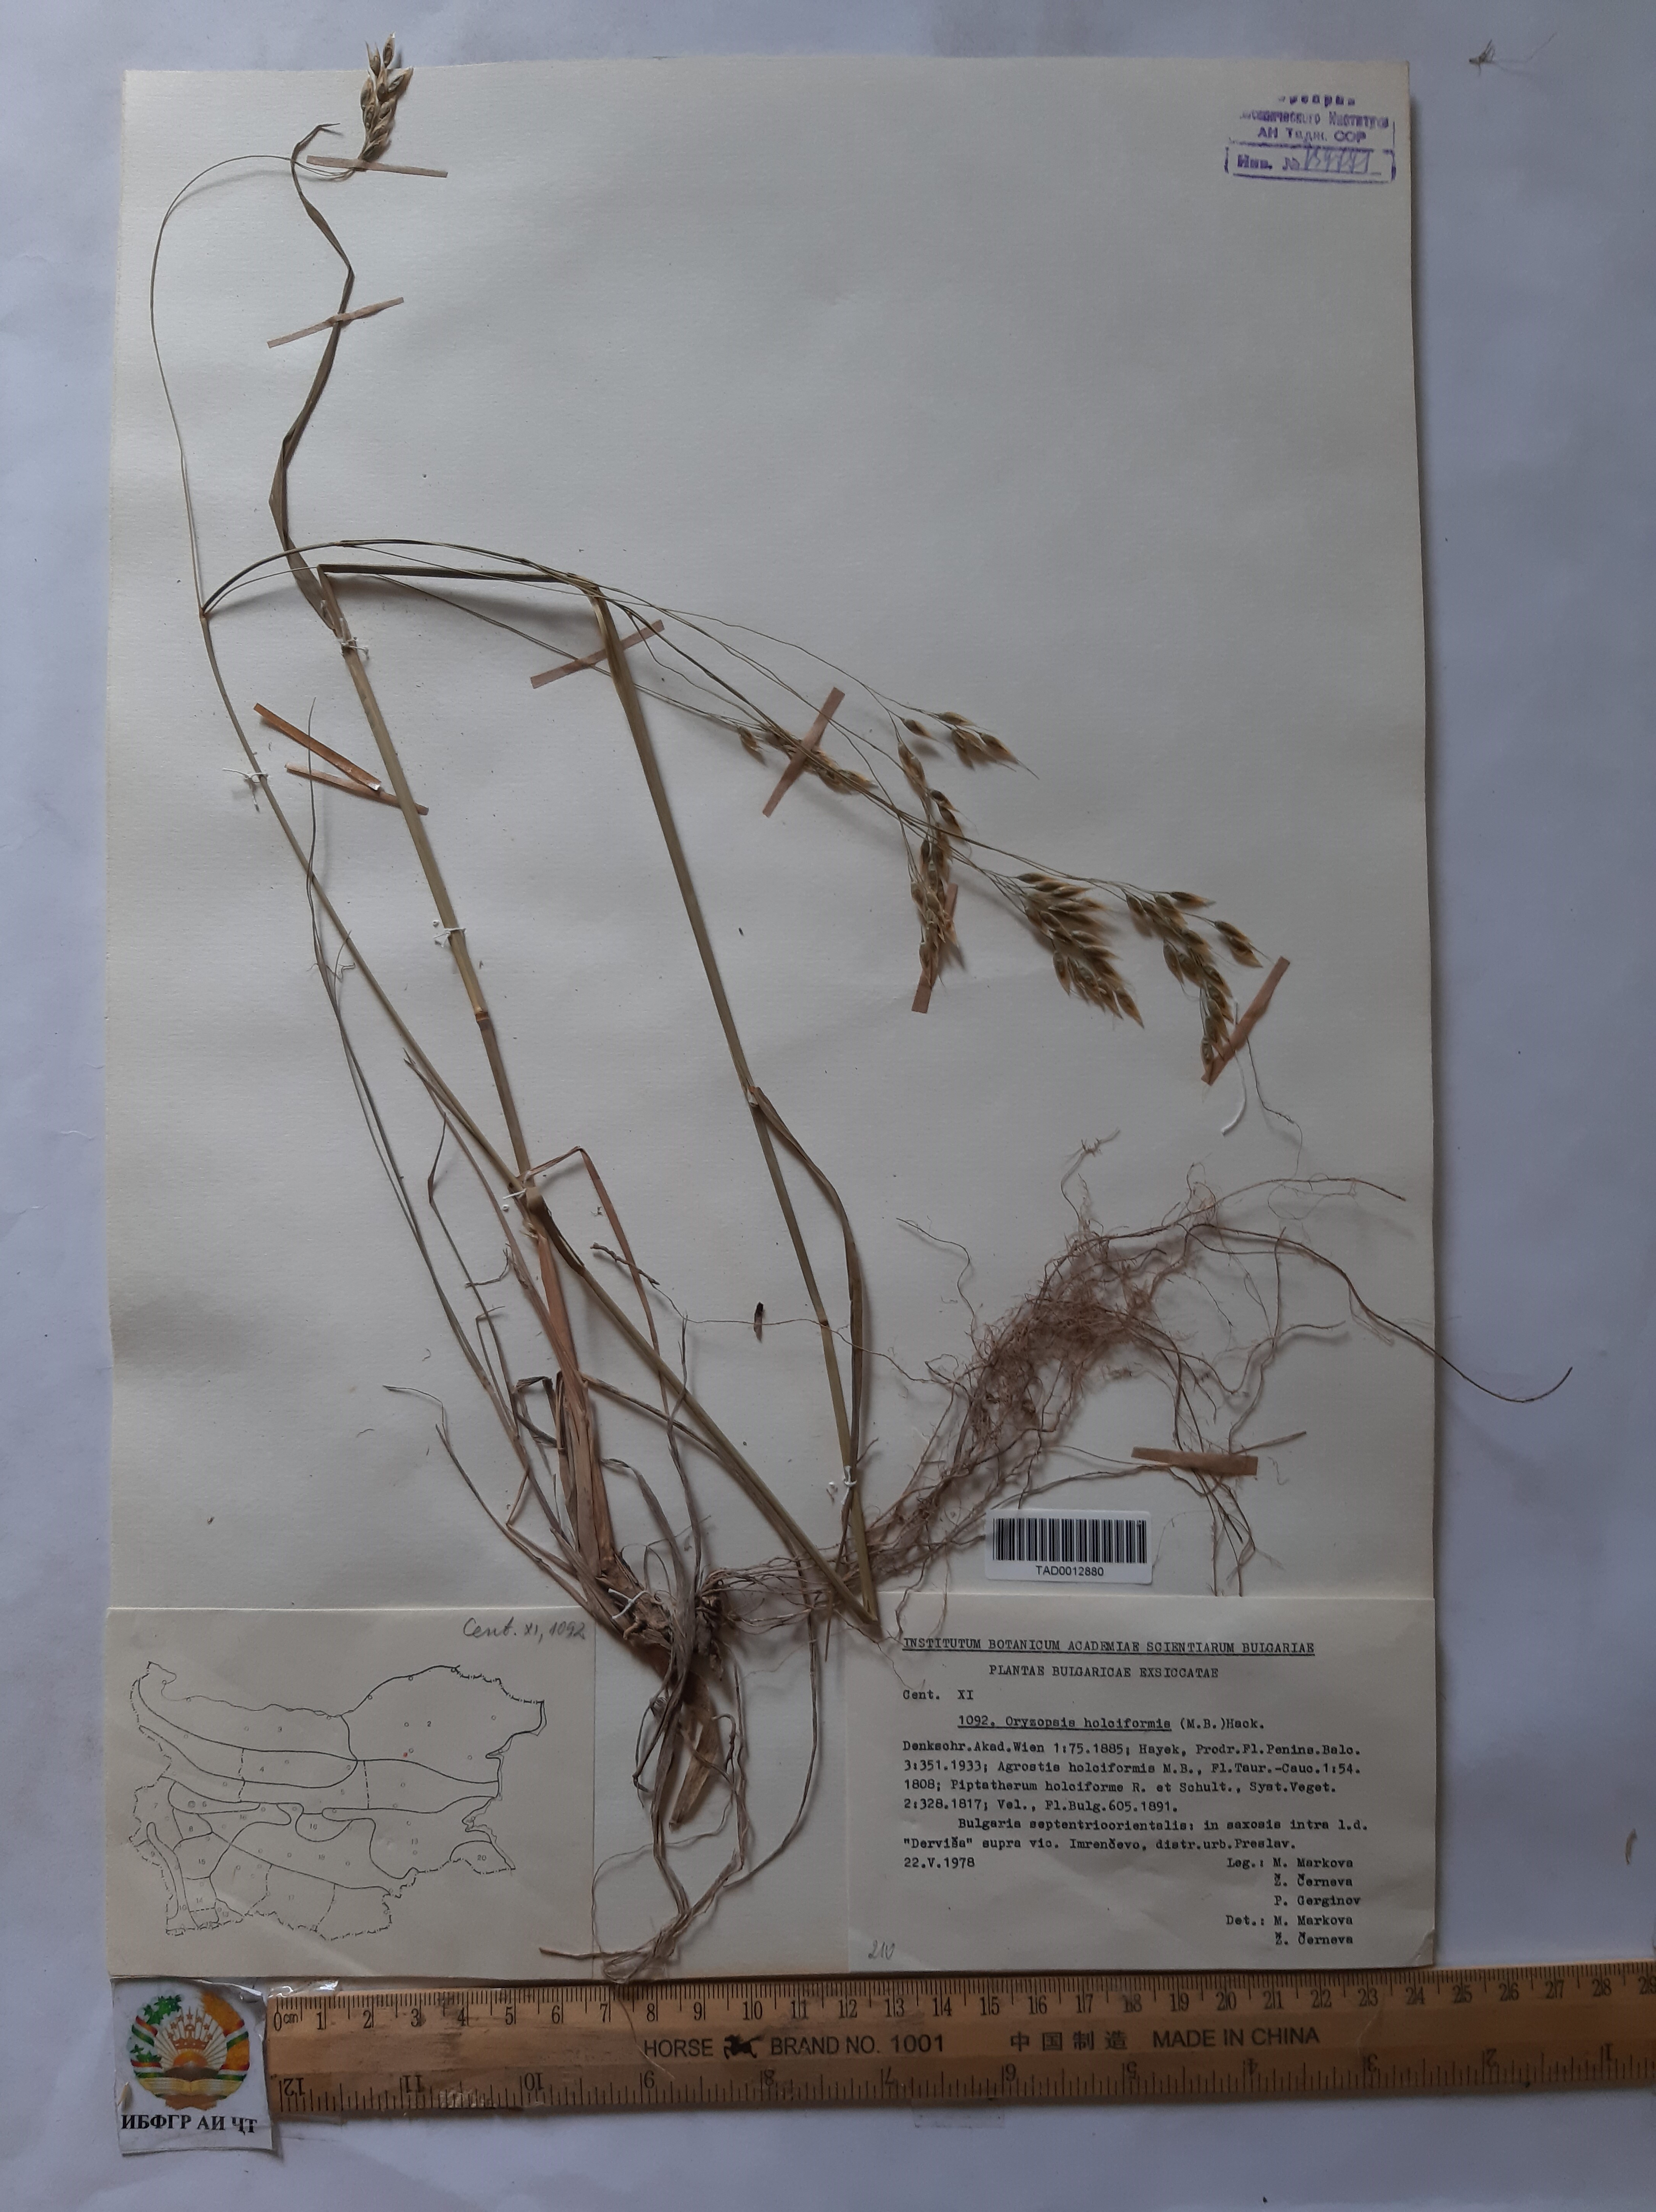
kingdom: Plantae
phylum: Tracheophyta
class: Liliopsida
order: Poales
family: Poaceae
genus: Piptatherum
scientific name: Piptatherum holciforme
